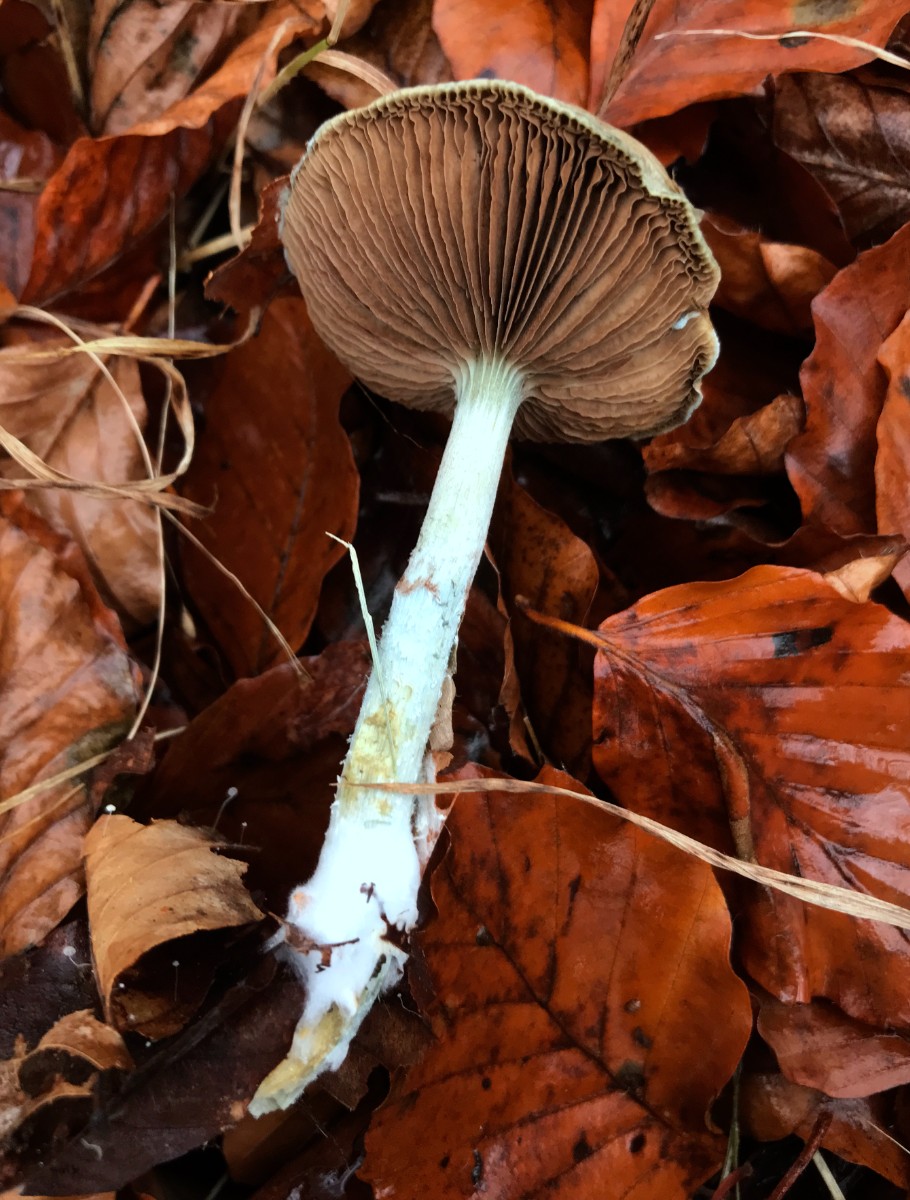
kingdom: Fungi
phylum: Basidiomycota
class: Agaricomycetes
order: Agaricales
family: Strophariaceae
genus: Stropharia
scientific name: Stropharia cyanea
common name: blågrøn bredblad
